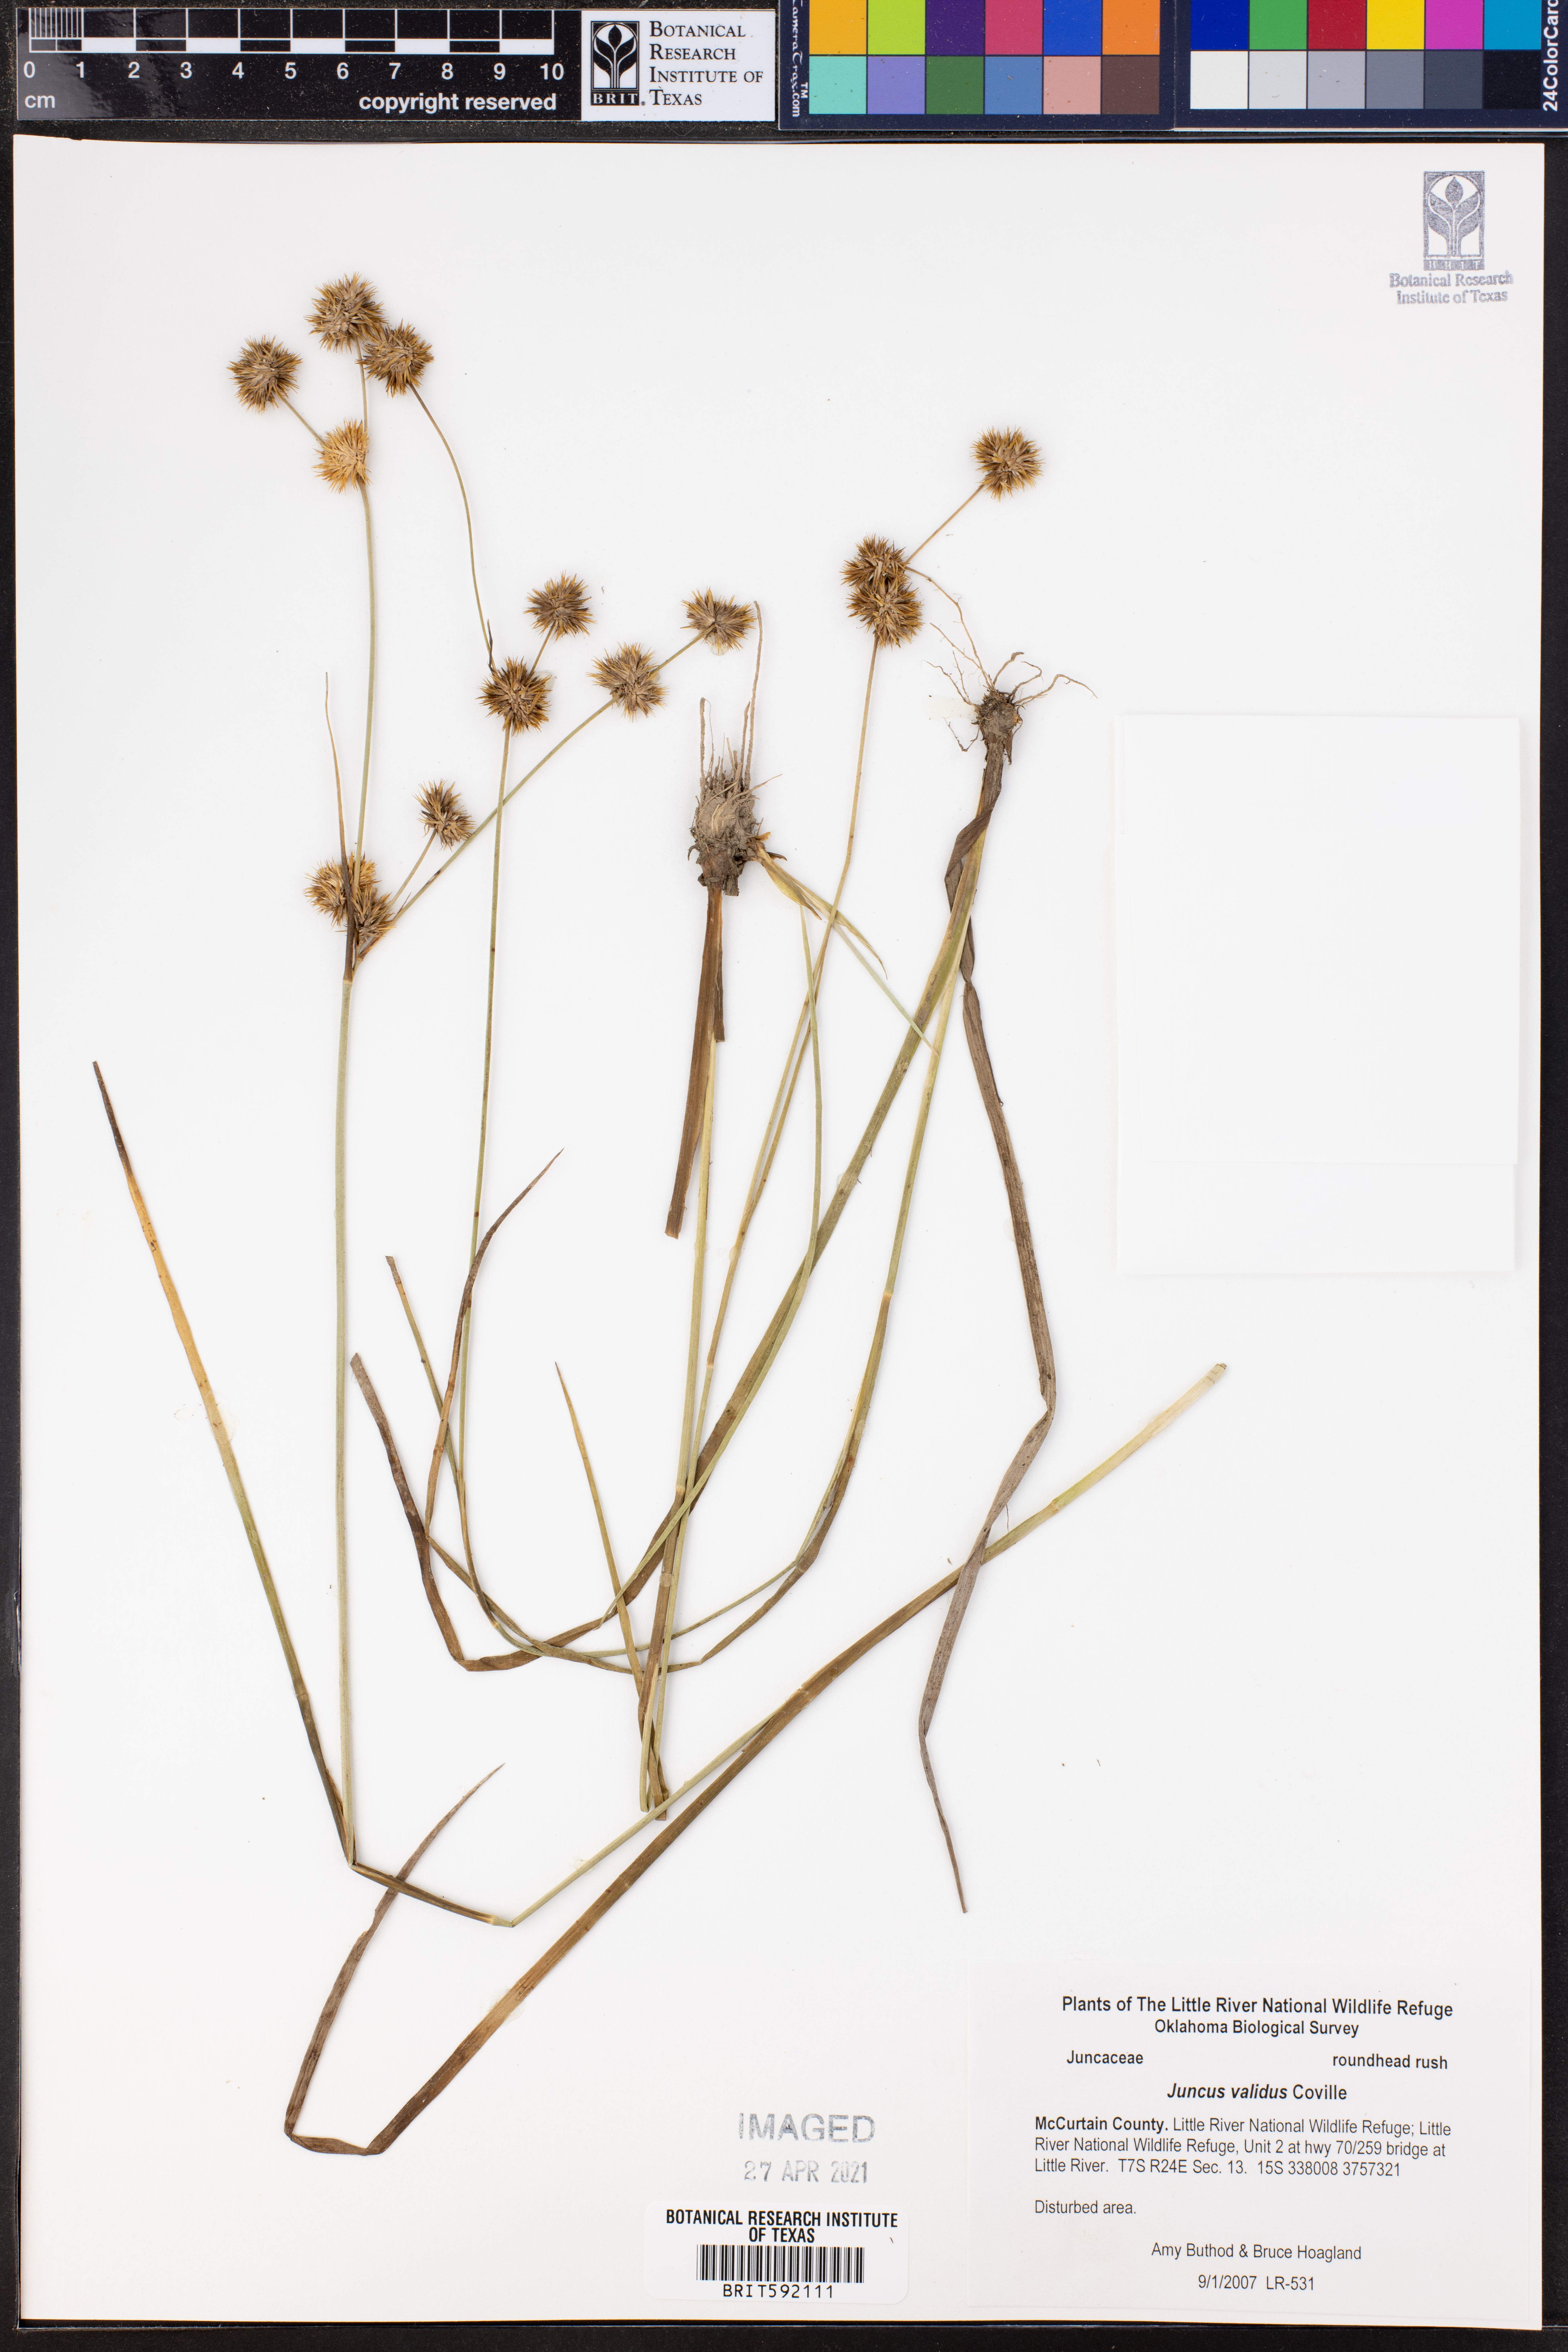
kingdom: Plantae
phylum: Tracheophyta
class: Liliopsida
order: Poales
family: Juncaceae
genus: Juncus
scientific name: Juncus validus
